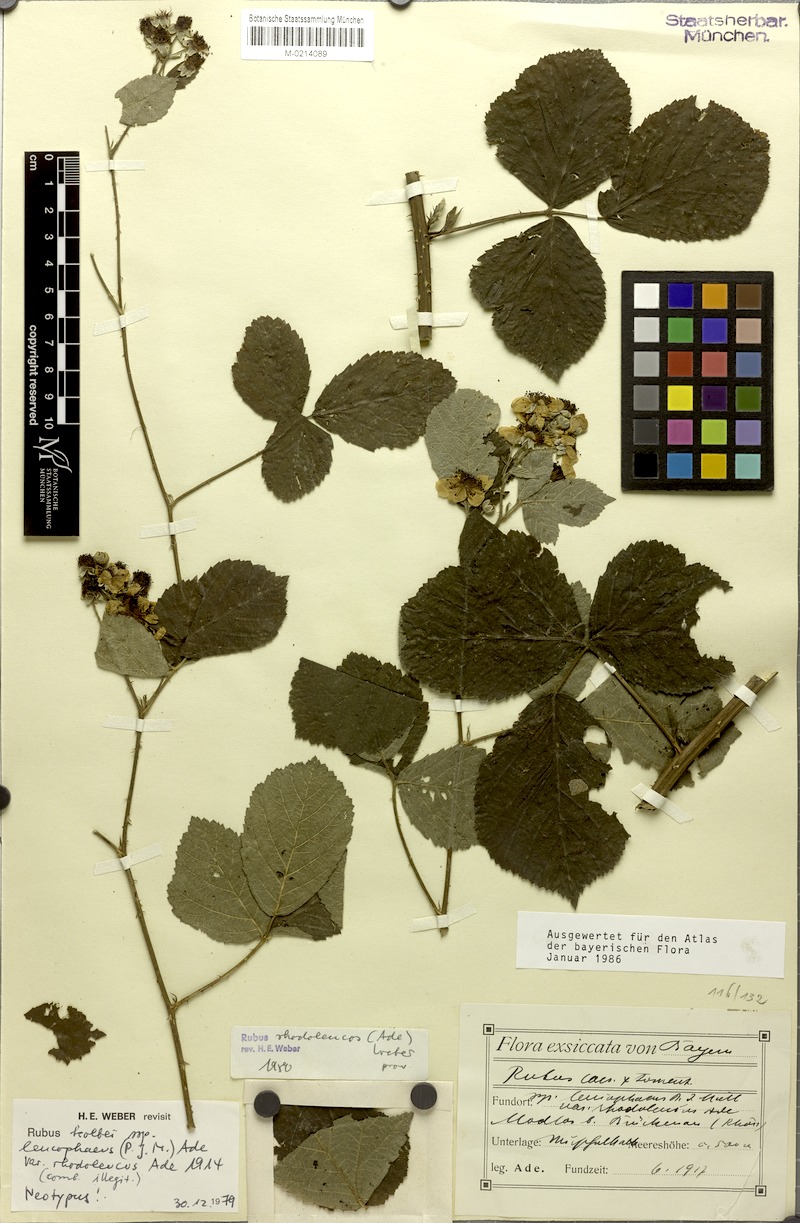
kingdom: Plantae
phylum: Tracheophyta
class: Magnoliopsida
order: Rosales
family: Rosaceae
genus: Rubus
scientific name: Rubus amphimalacus
